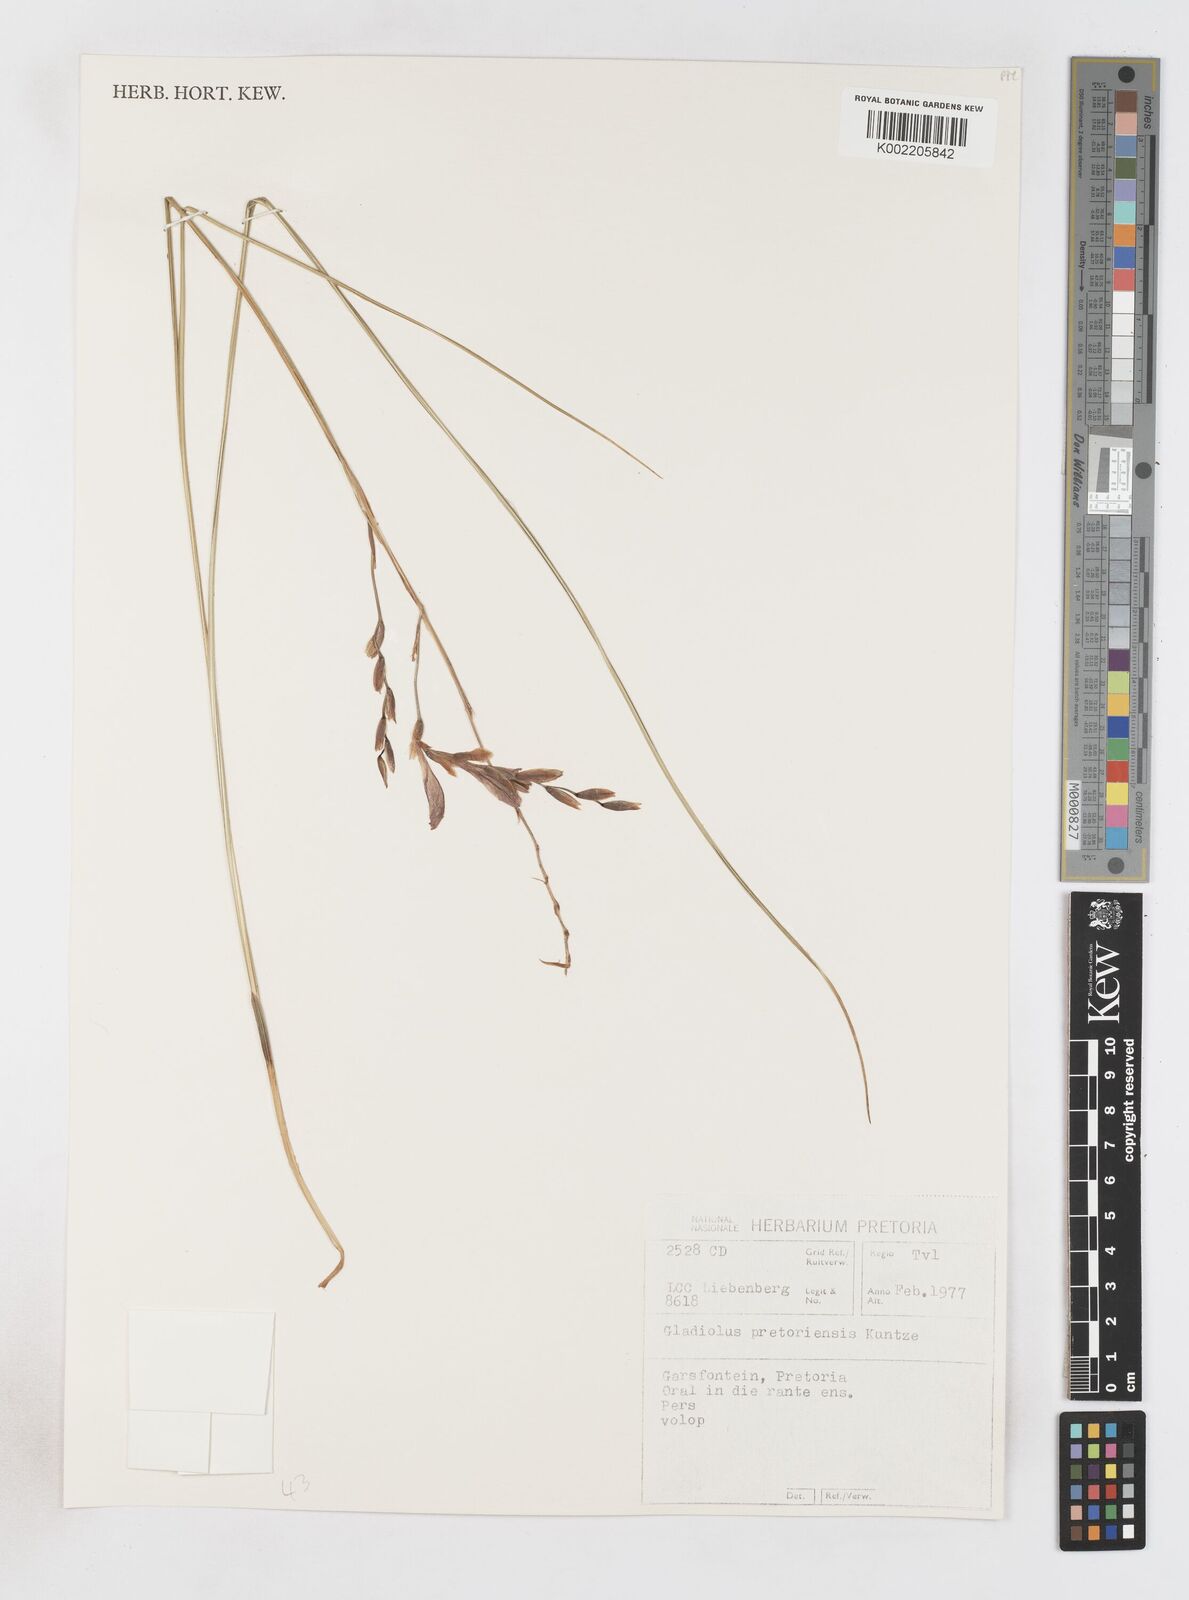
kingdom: Plantae
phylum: Tracheophyta
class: Liliopsida
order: Asparagales
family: Iridaceae
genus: Gladiolus
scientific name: Gladiolus pretoriensis
